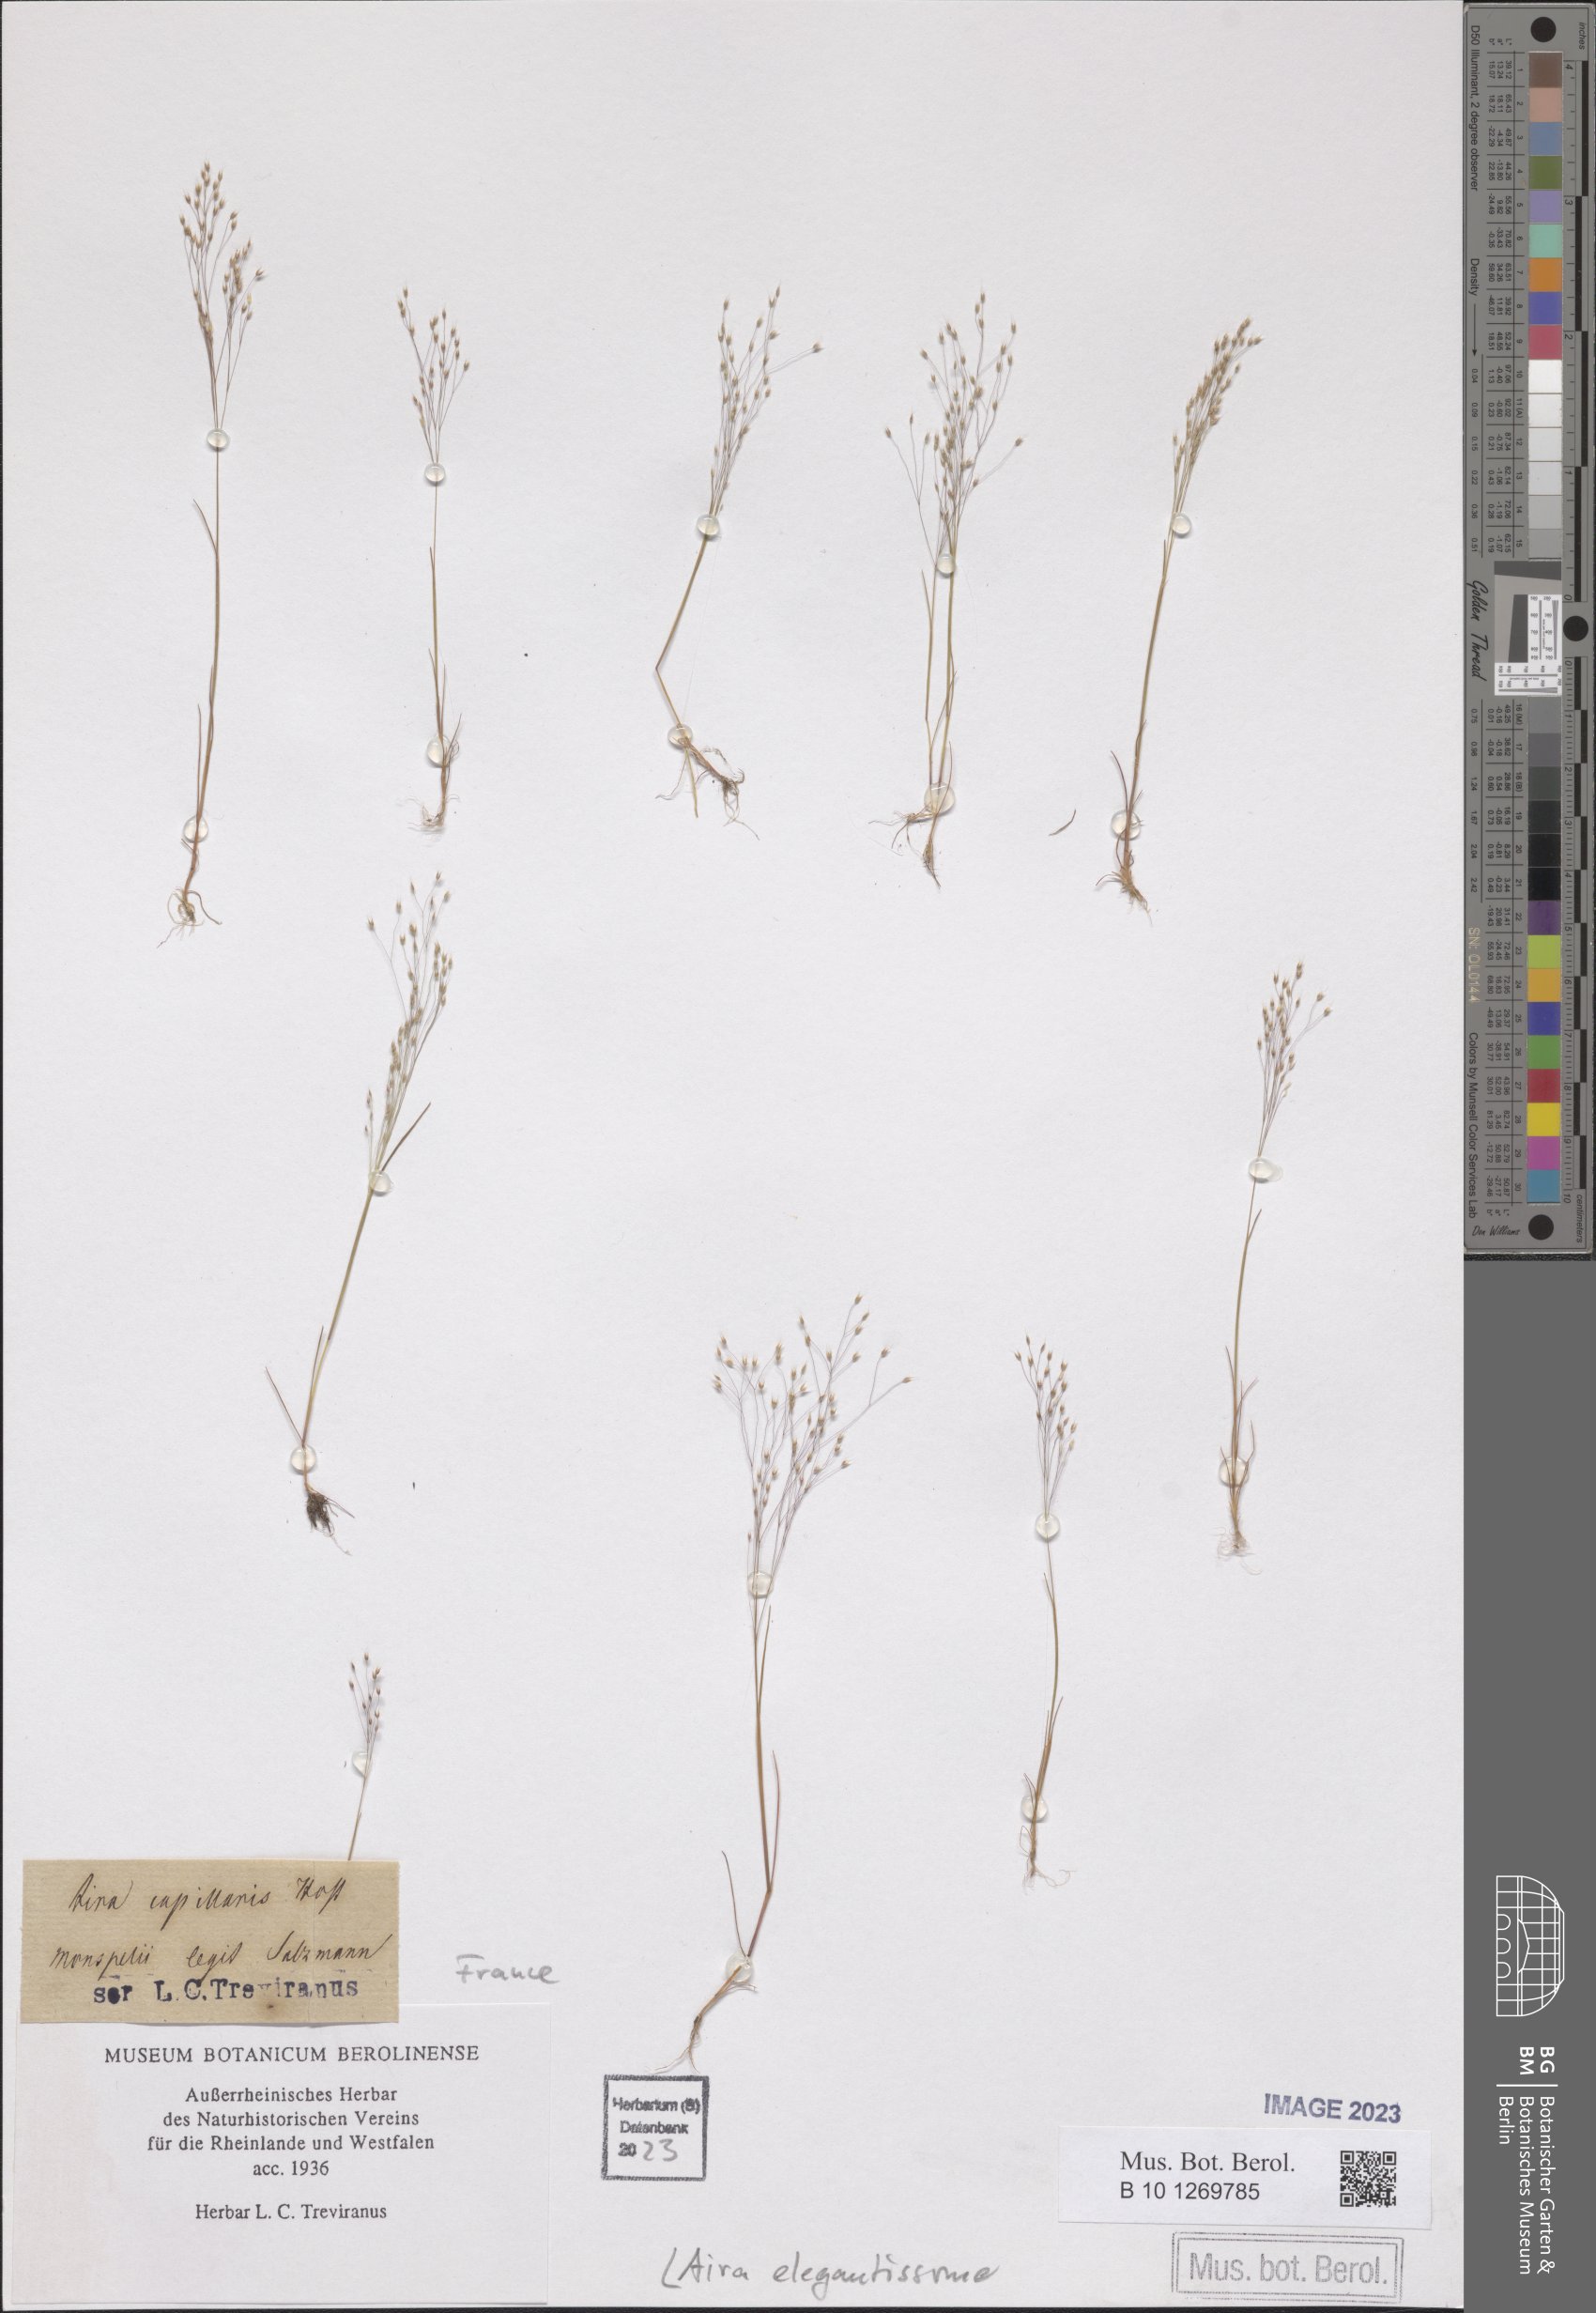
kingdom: Plantae
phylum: Tracheophyta
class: Liliopsida
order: Poales
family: Poaceae
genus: Aira
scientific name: Aira elegans
